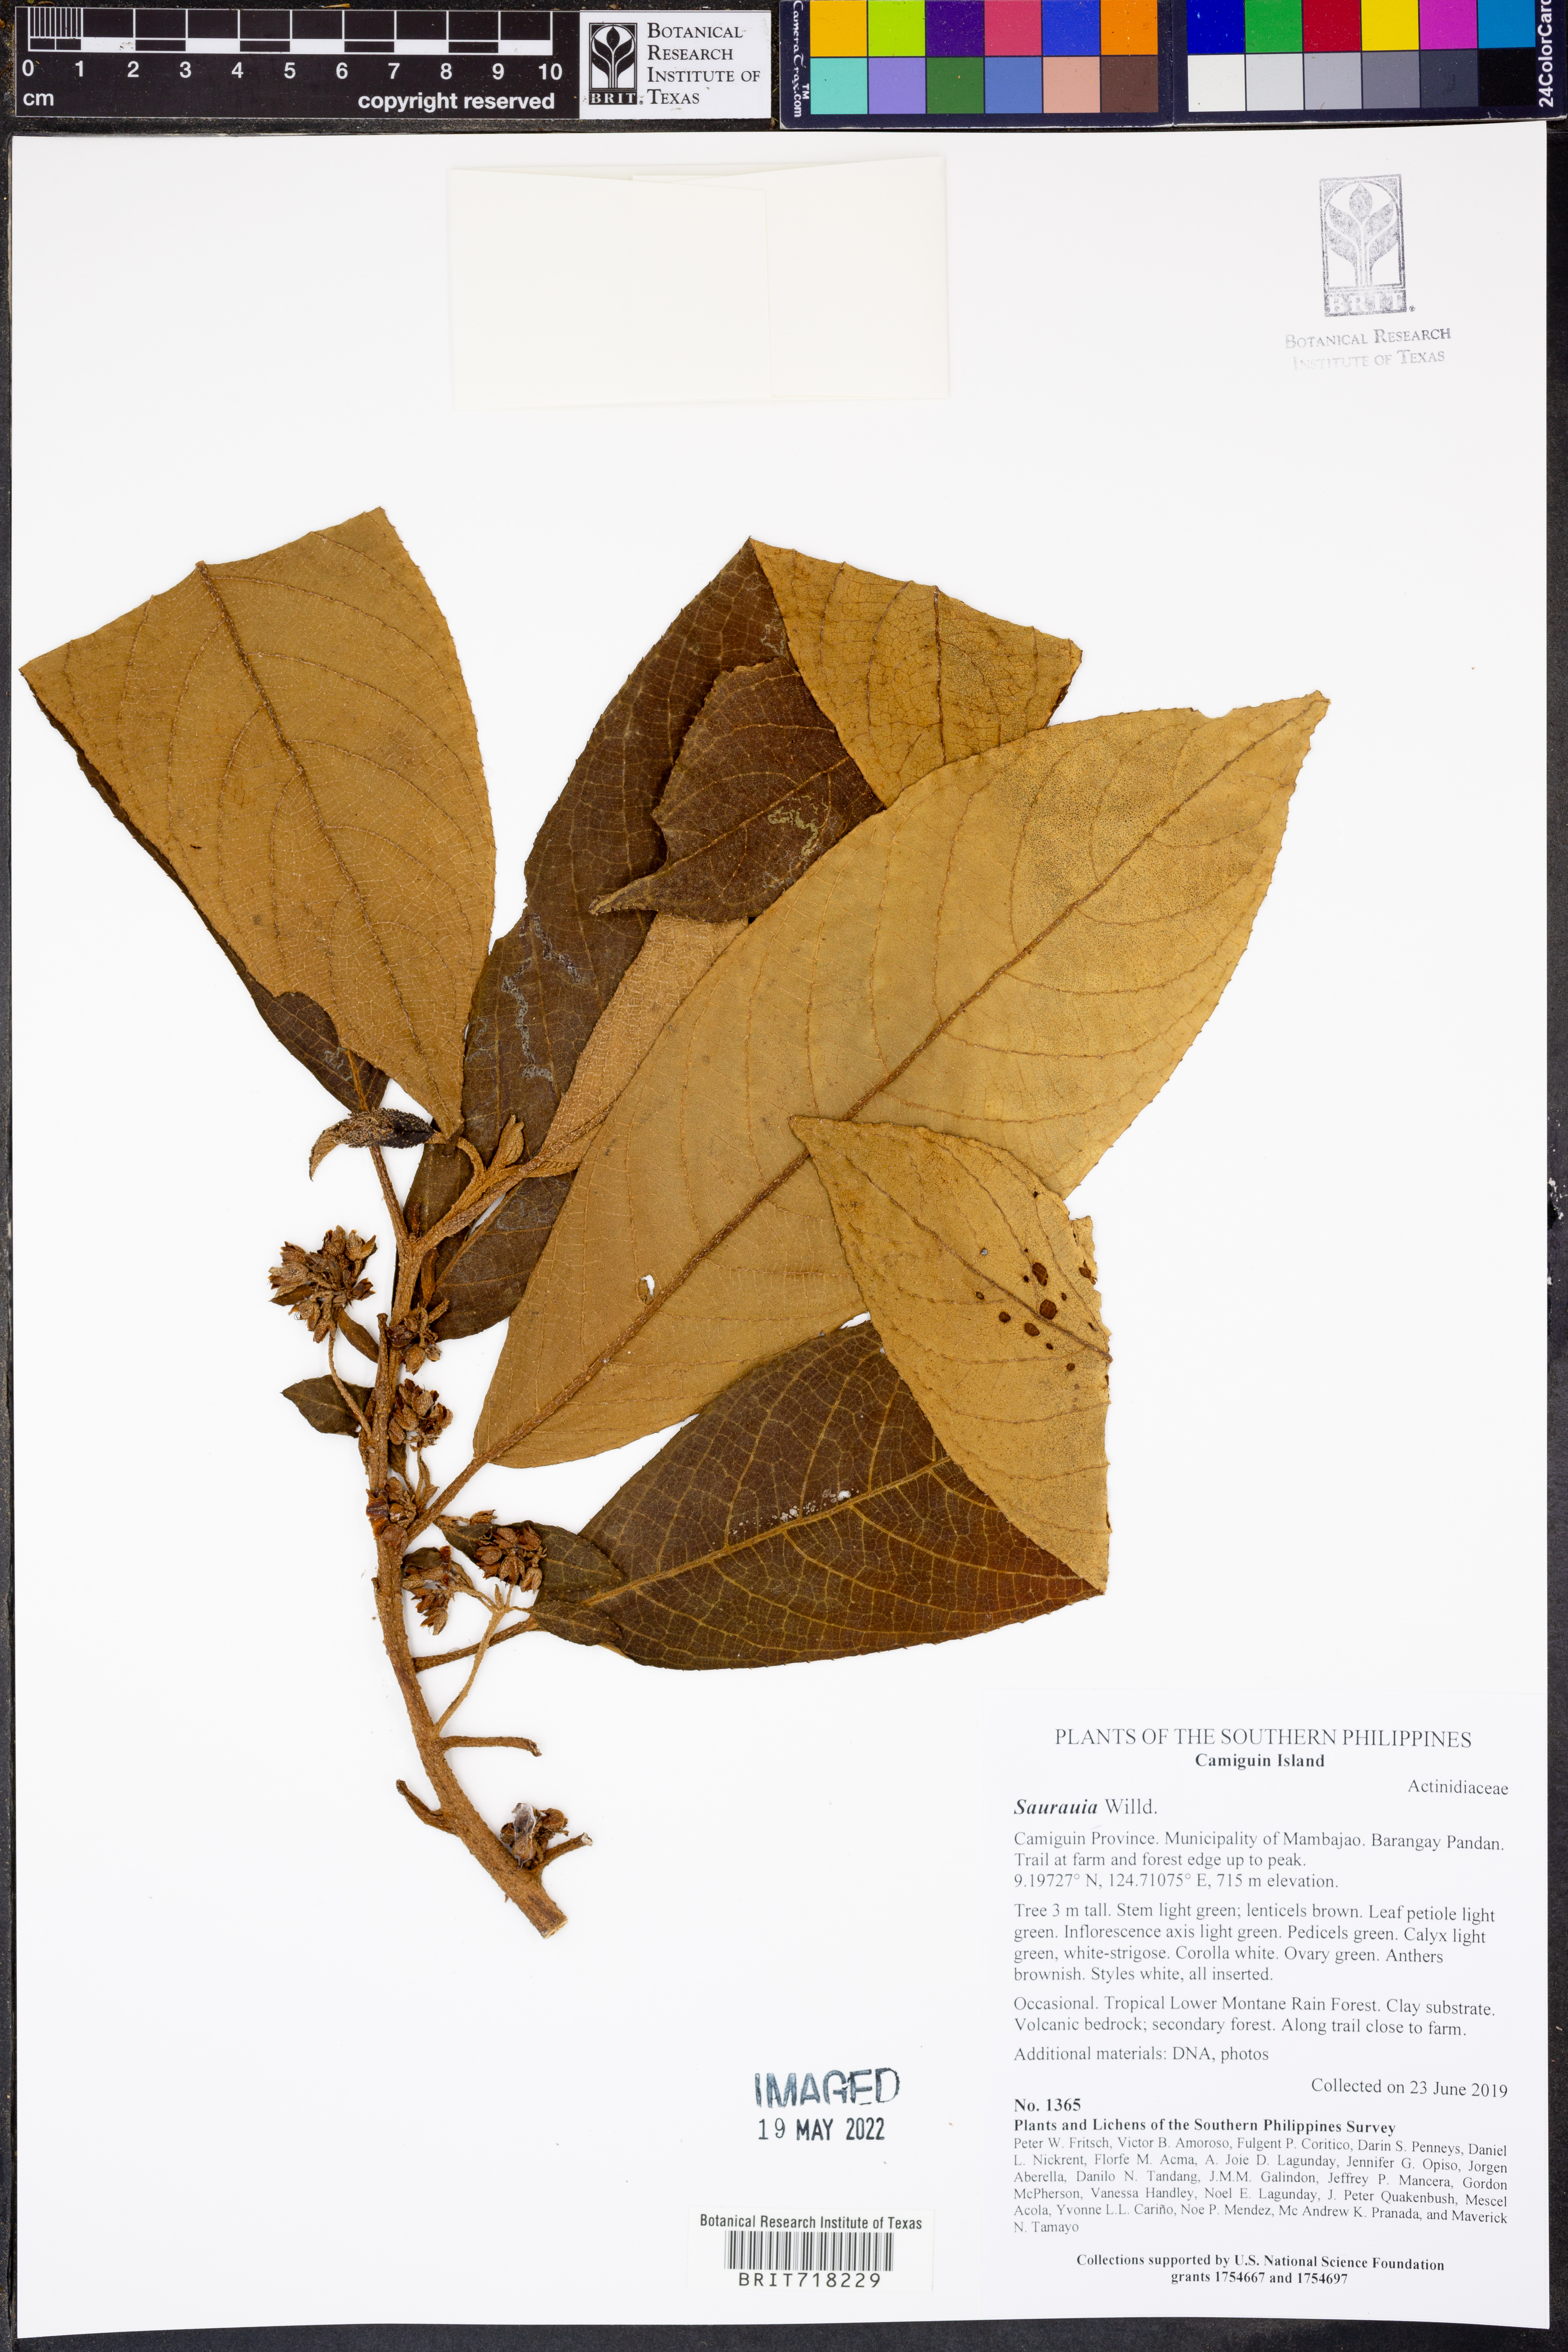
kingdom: Plantae
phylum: Tracheophyta
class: Magnoliopsida
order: Ericales
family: Actinidiaceae
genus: Saurauia
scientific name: Saurauia
